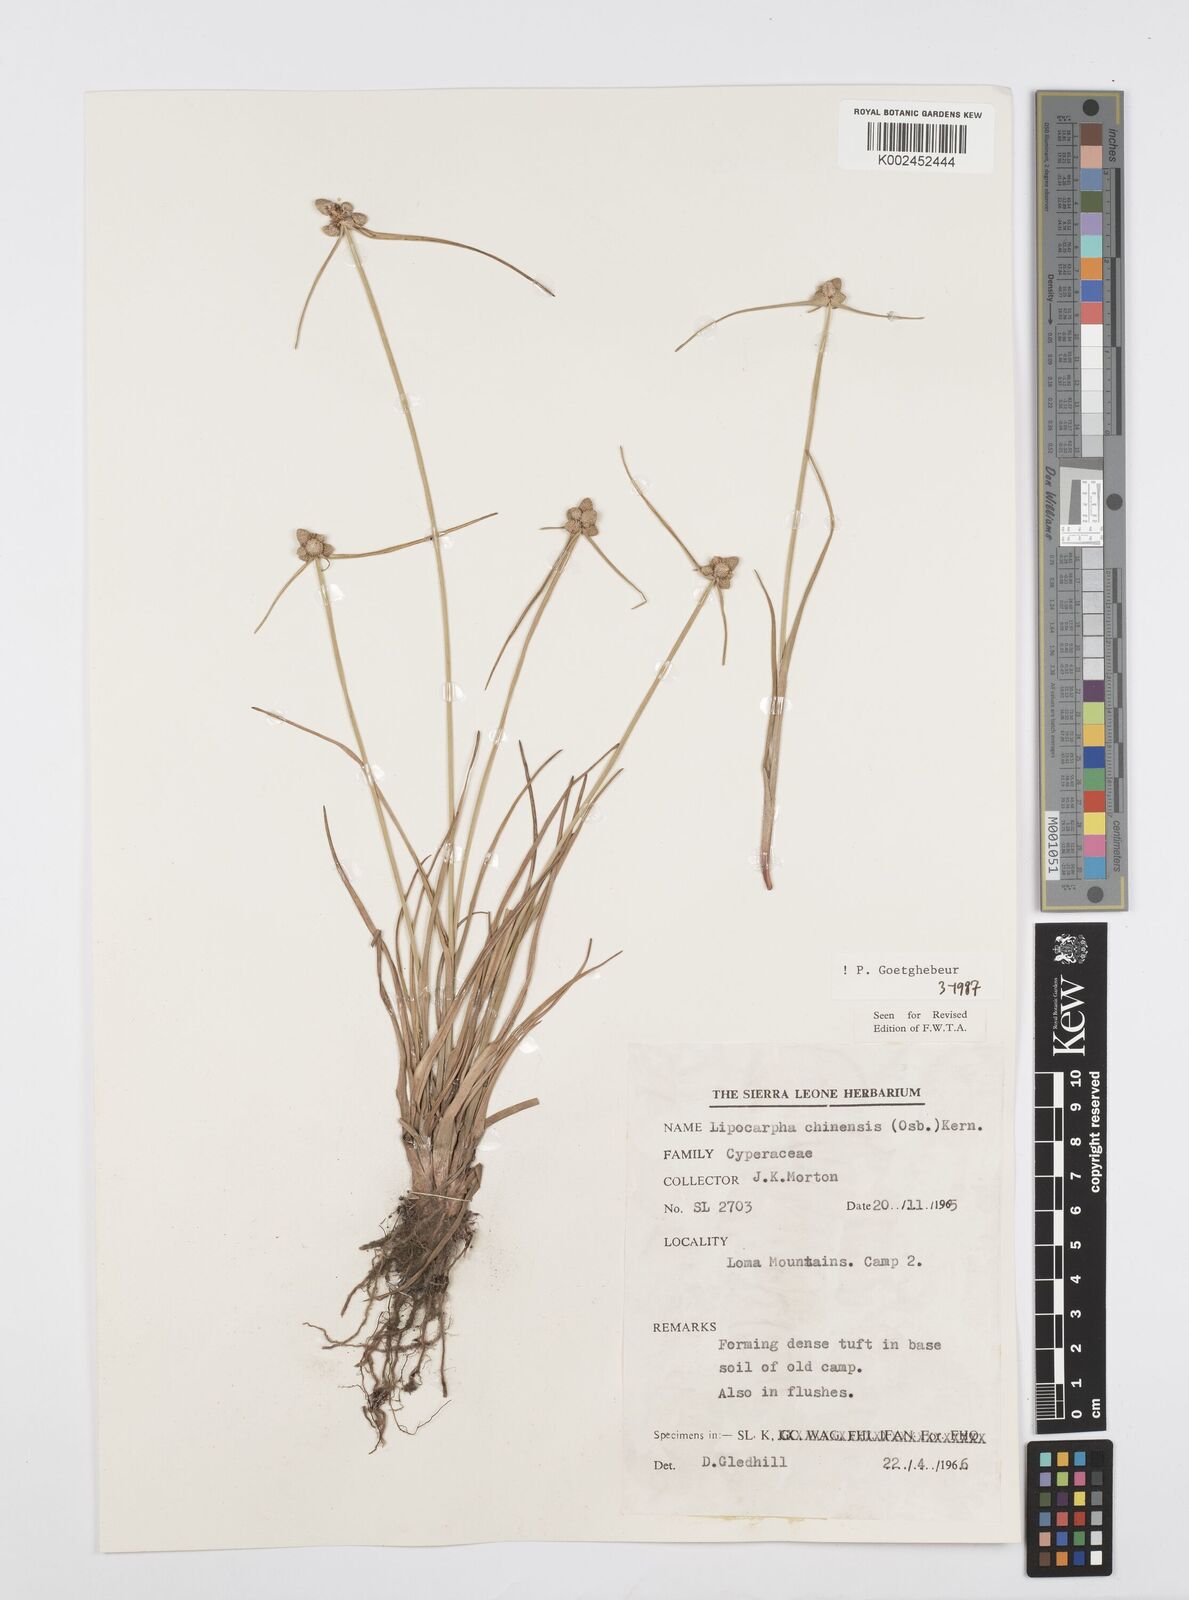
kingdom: Plantae
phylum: Tracheophyta
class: Liliopsida
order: Poales
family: Cyperaceae
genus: Cyperus
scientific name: Cyperus albescens
